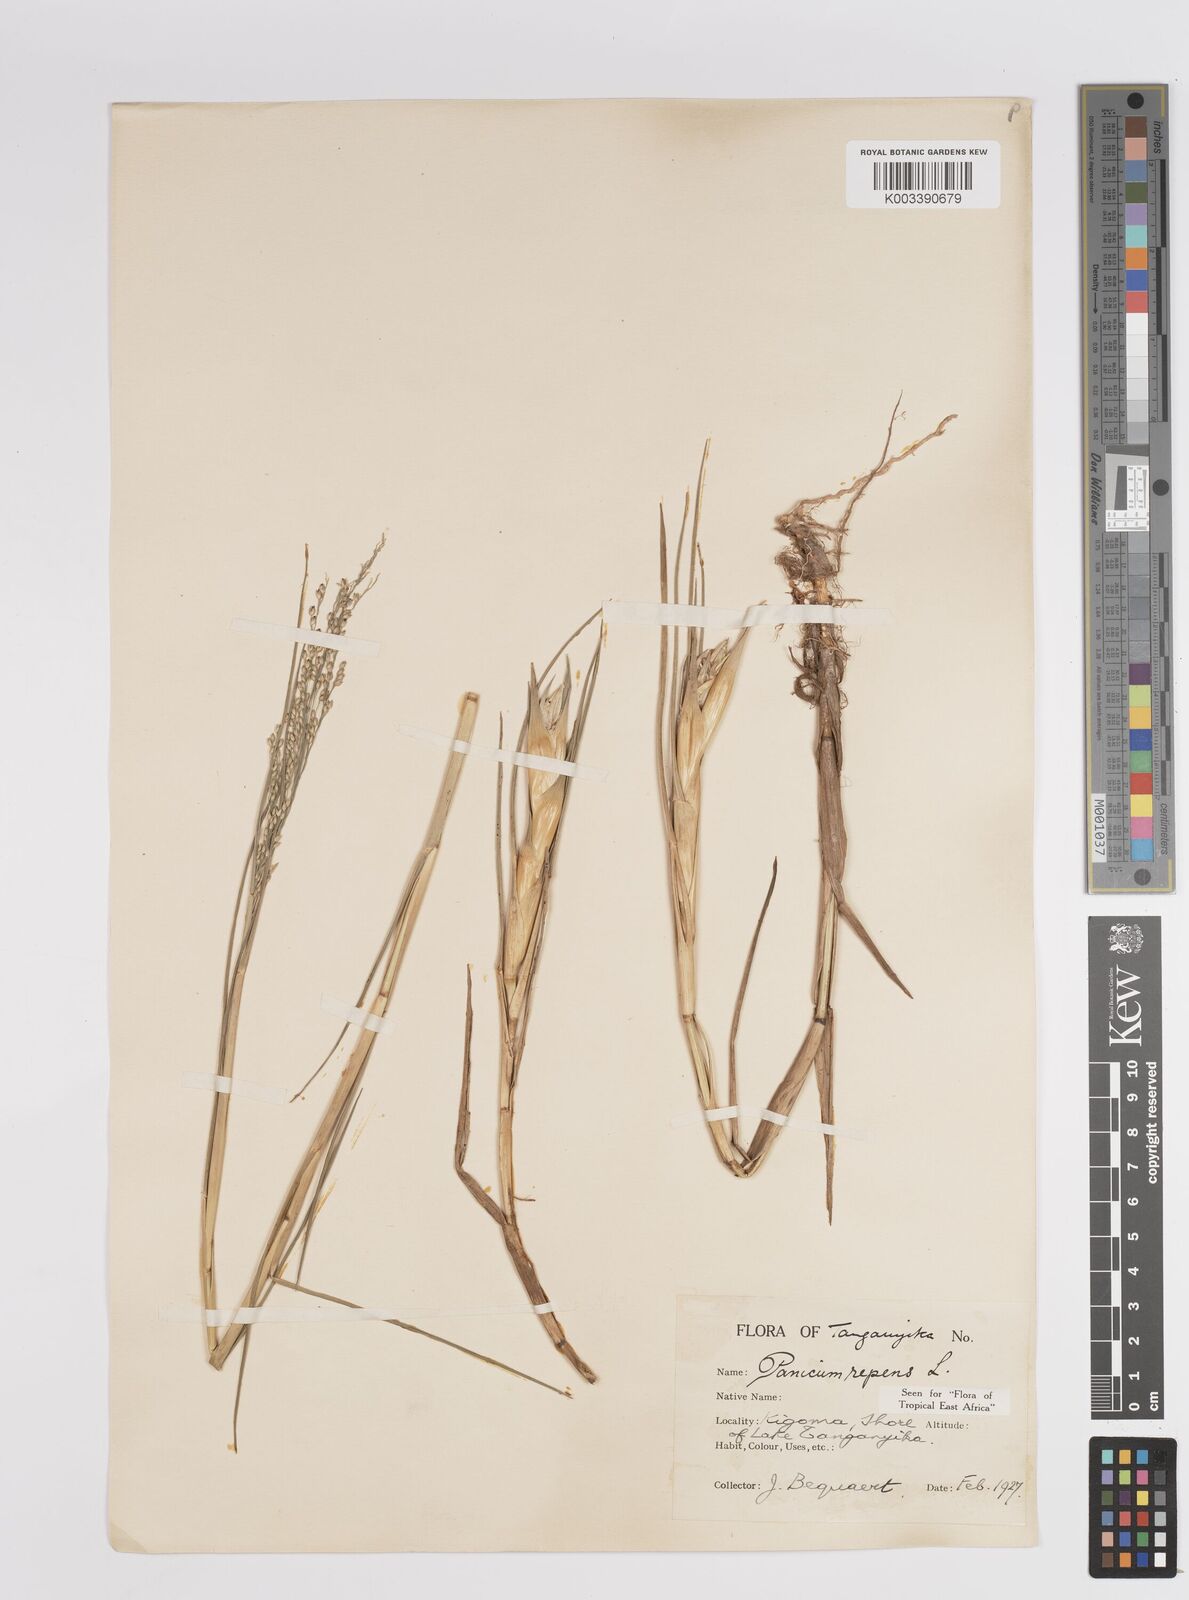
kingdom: Plantae
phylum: Tracheophyta
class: Liliopsida
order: Poales
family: Poaceae
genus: Panicum
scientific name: Panicum repens
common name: Torpedo grass
